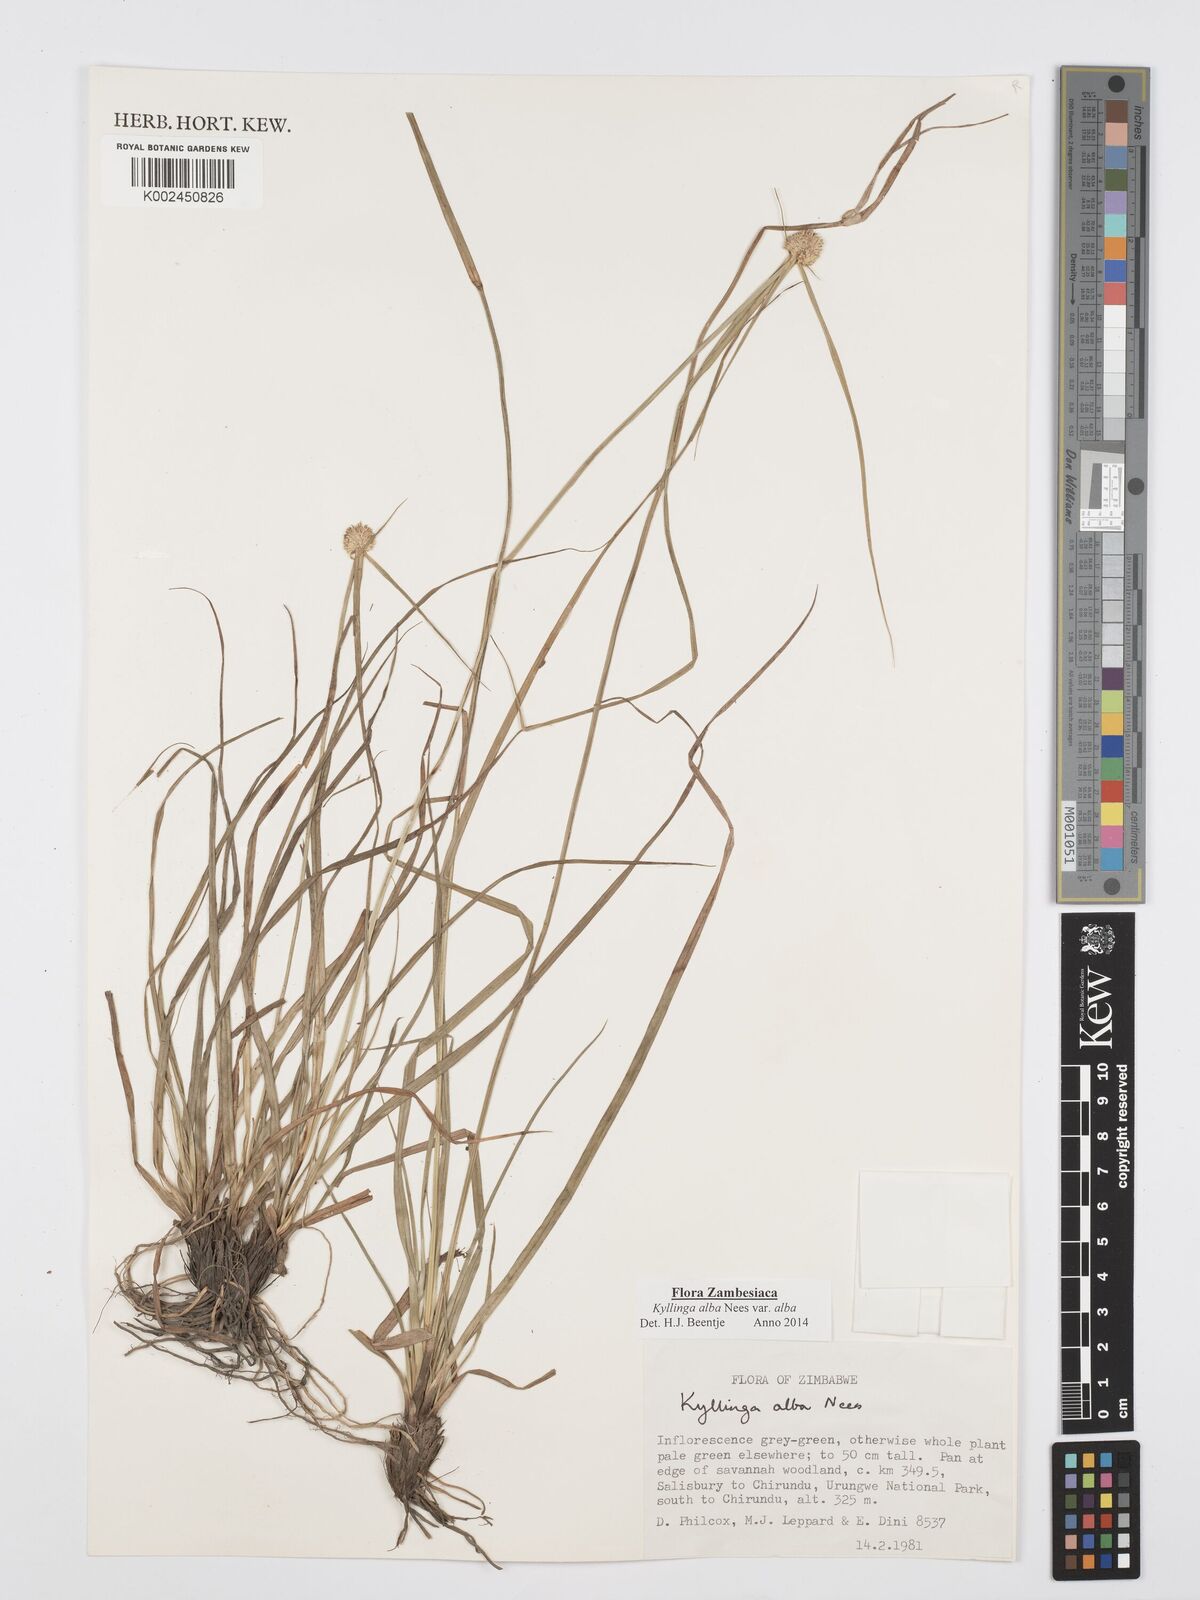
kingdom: Plantae
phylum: Tracheophyta
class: Liliopsida
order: Poales
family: Cyperaceae
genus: Cyperus
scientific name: Cyperus
